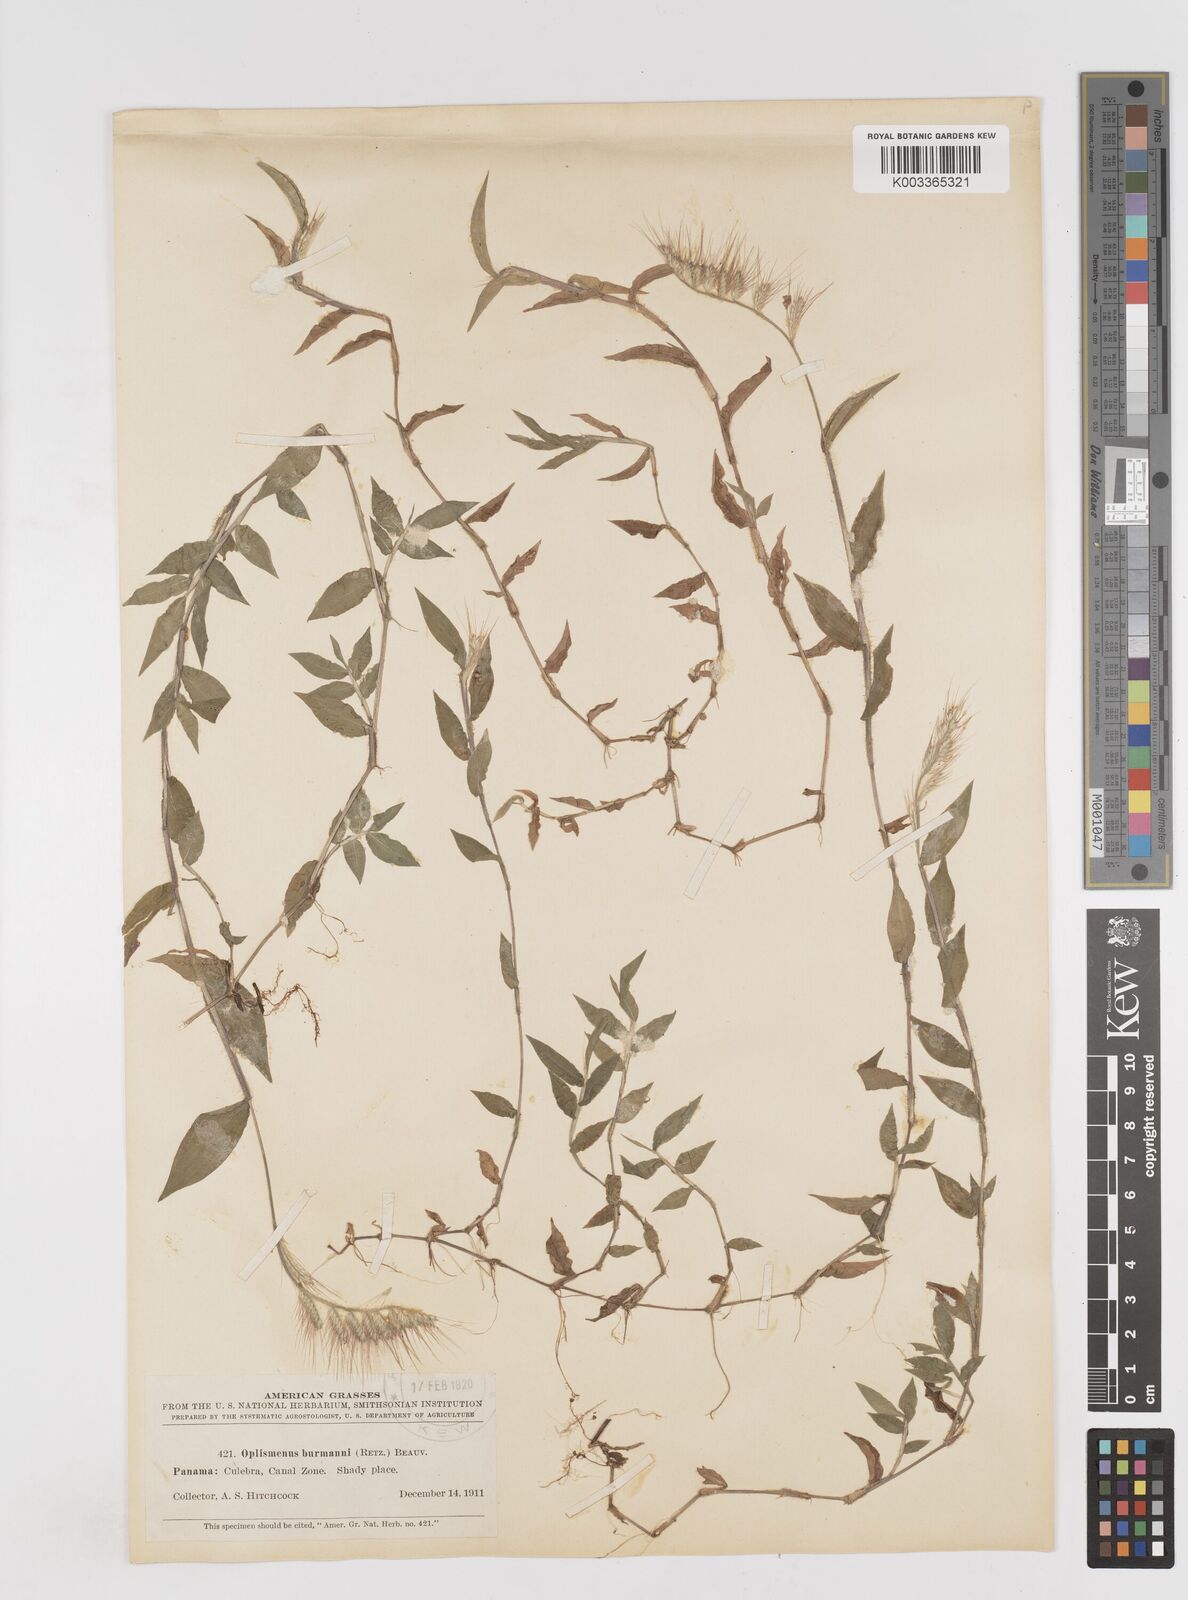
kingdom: Plantae
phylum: Tracheophyta
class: Liliopsida
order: Poales
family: Poaceae
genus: Oplismenus
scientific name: Oplismenus burmanni
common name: Burmann's basketgrass
